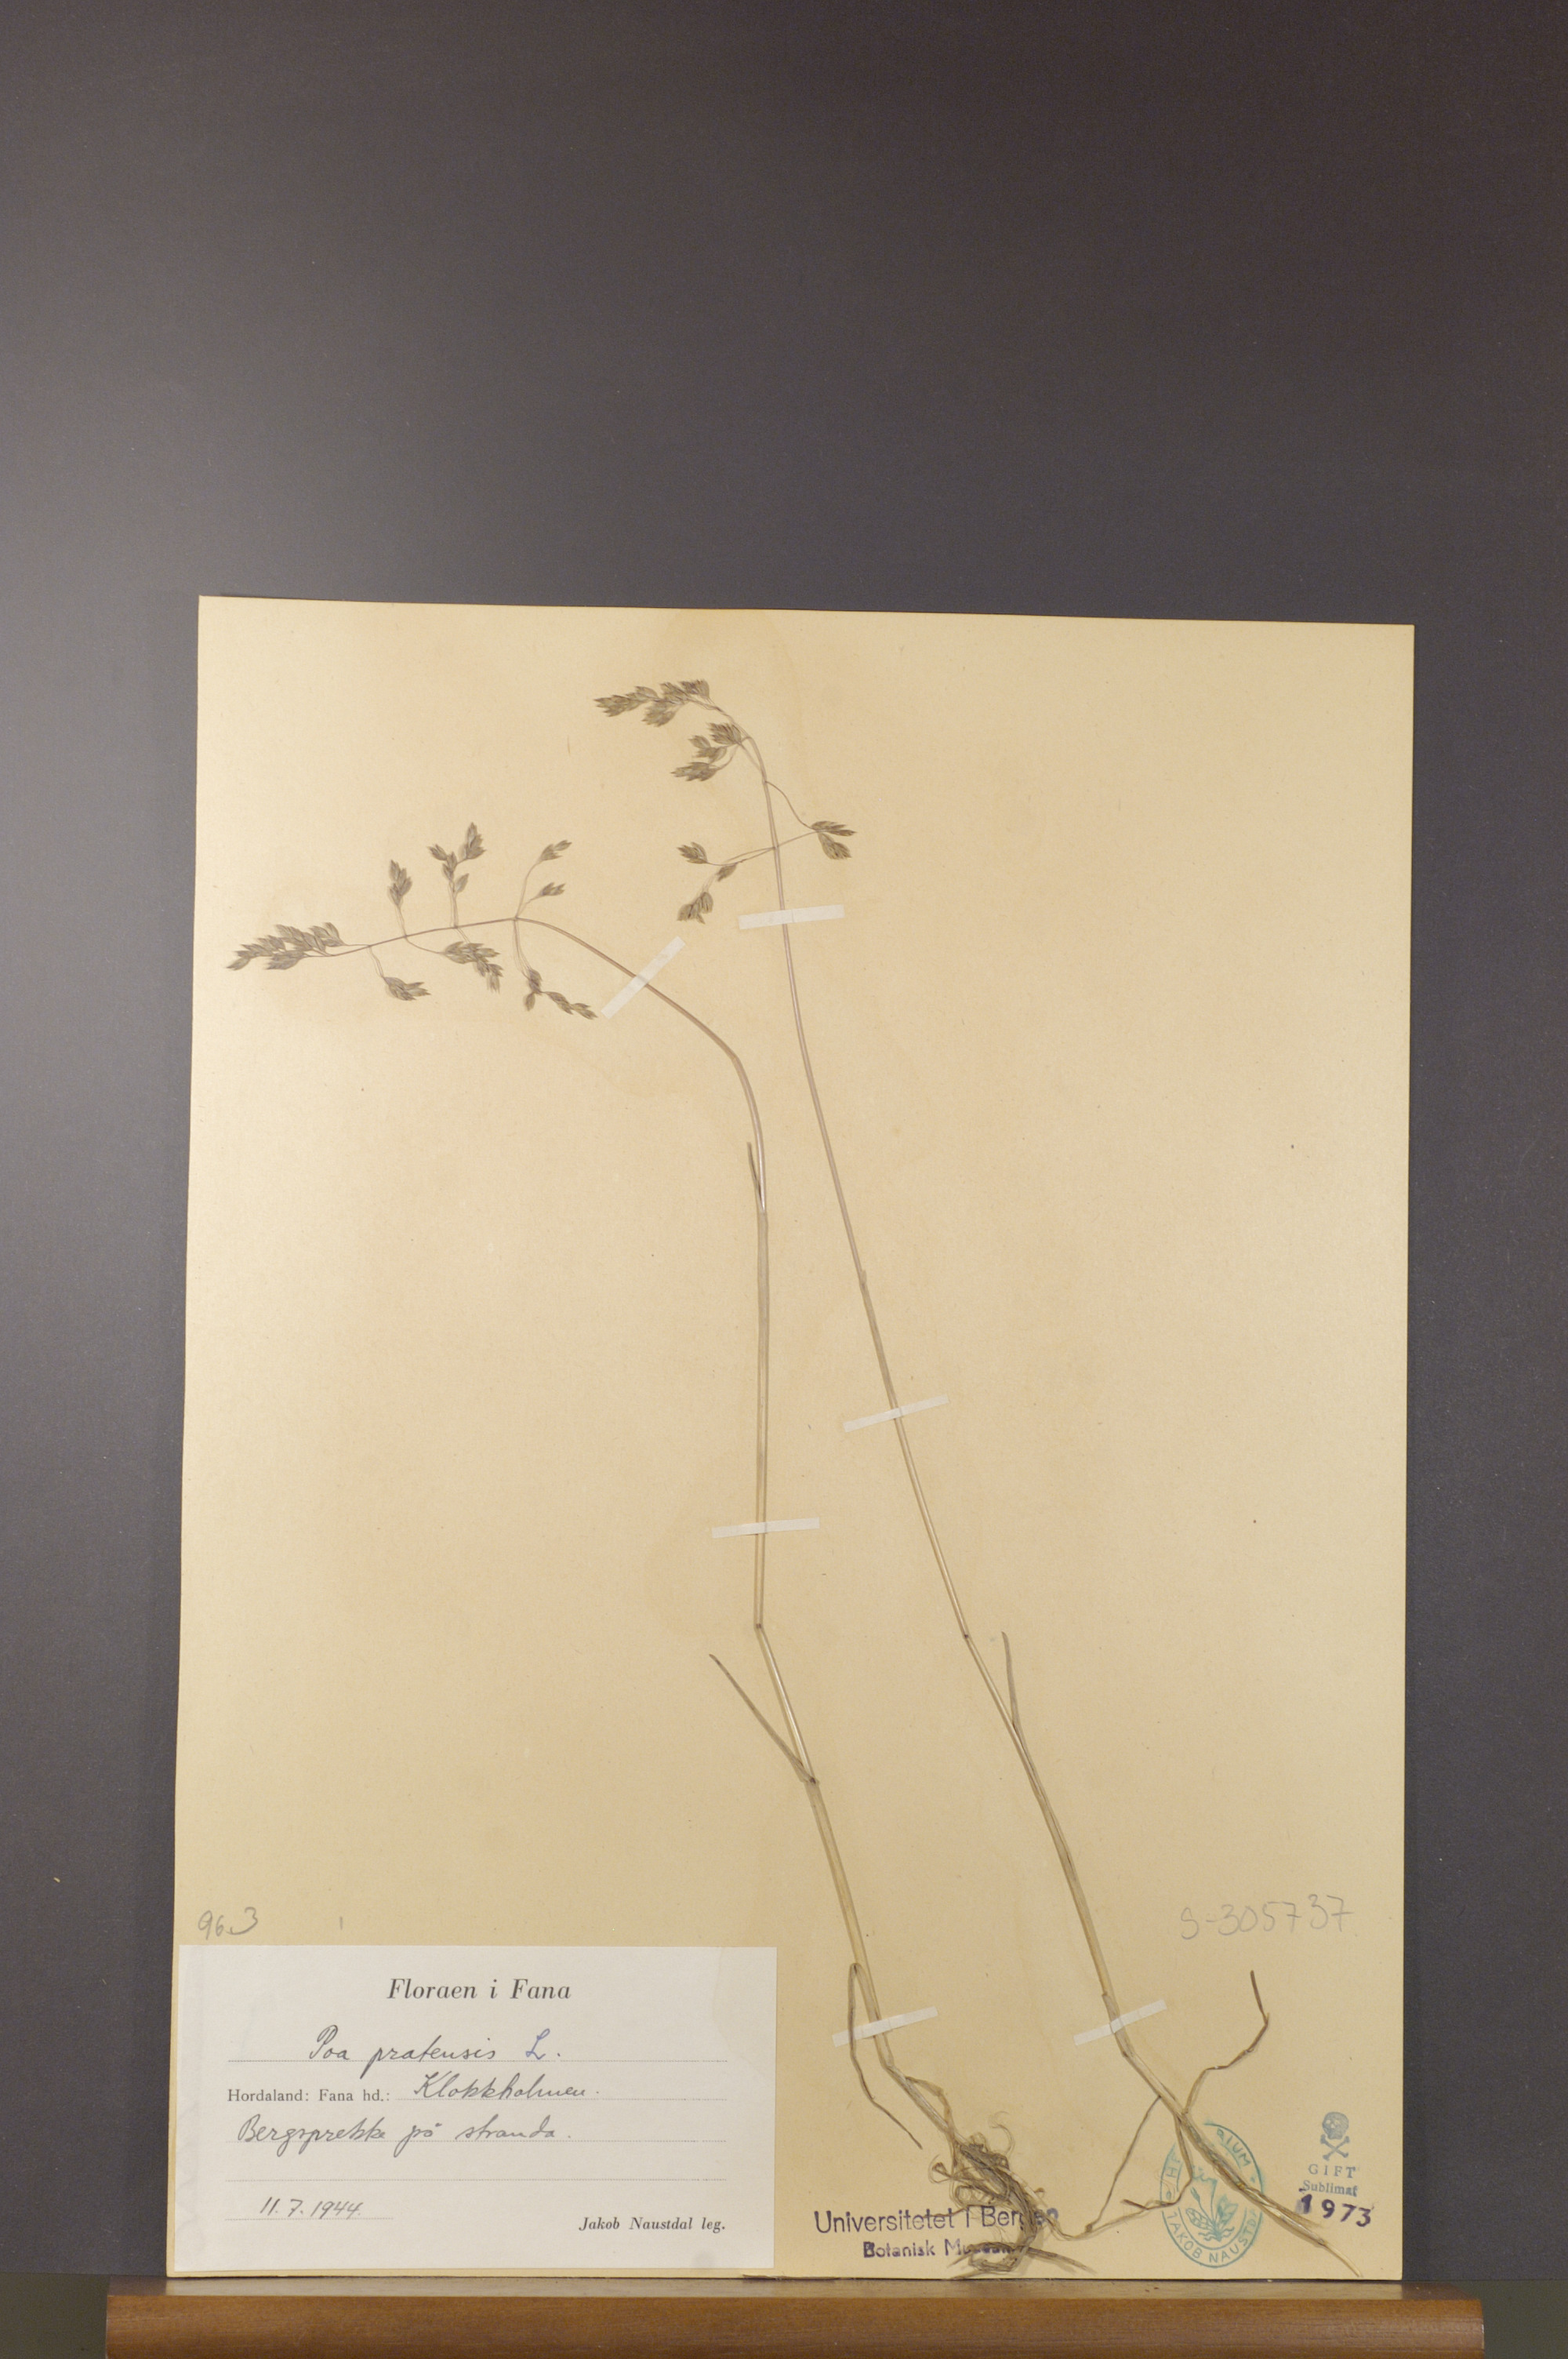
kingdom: Plantae
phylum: Tracheophyta
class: Liliopsida
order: Poales
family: Poaceae
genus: Poa
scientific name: Poa pratensis
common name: Kentucky bluegrass
